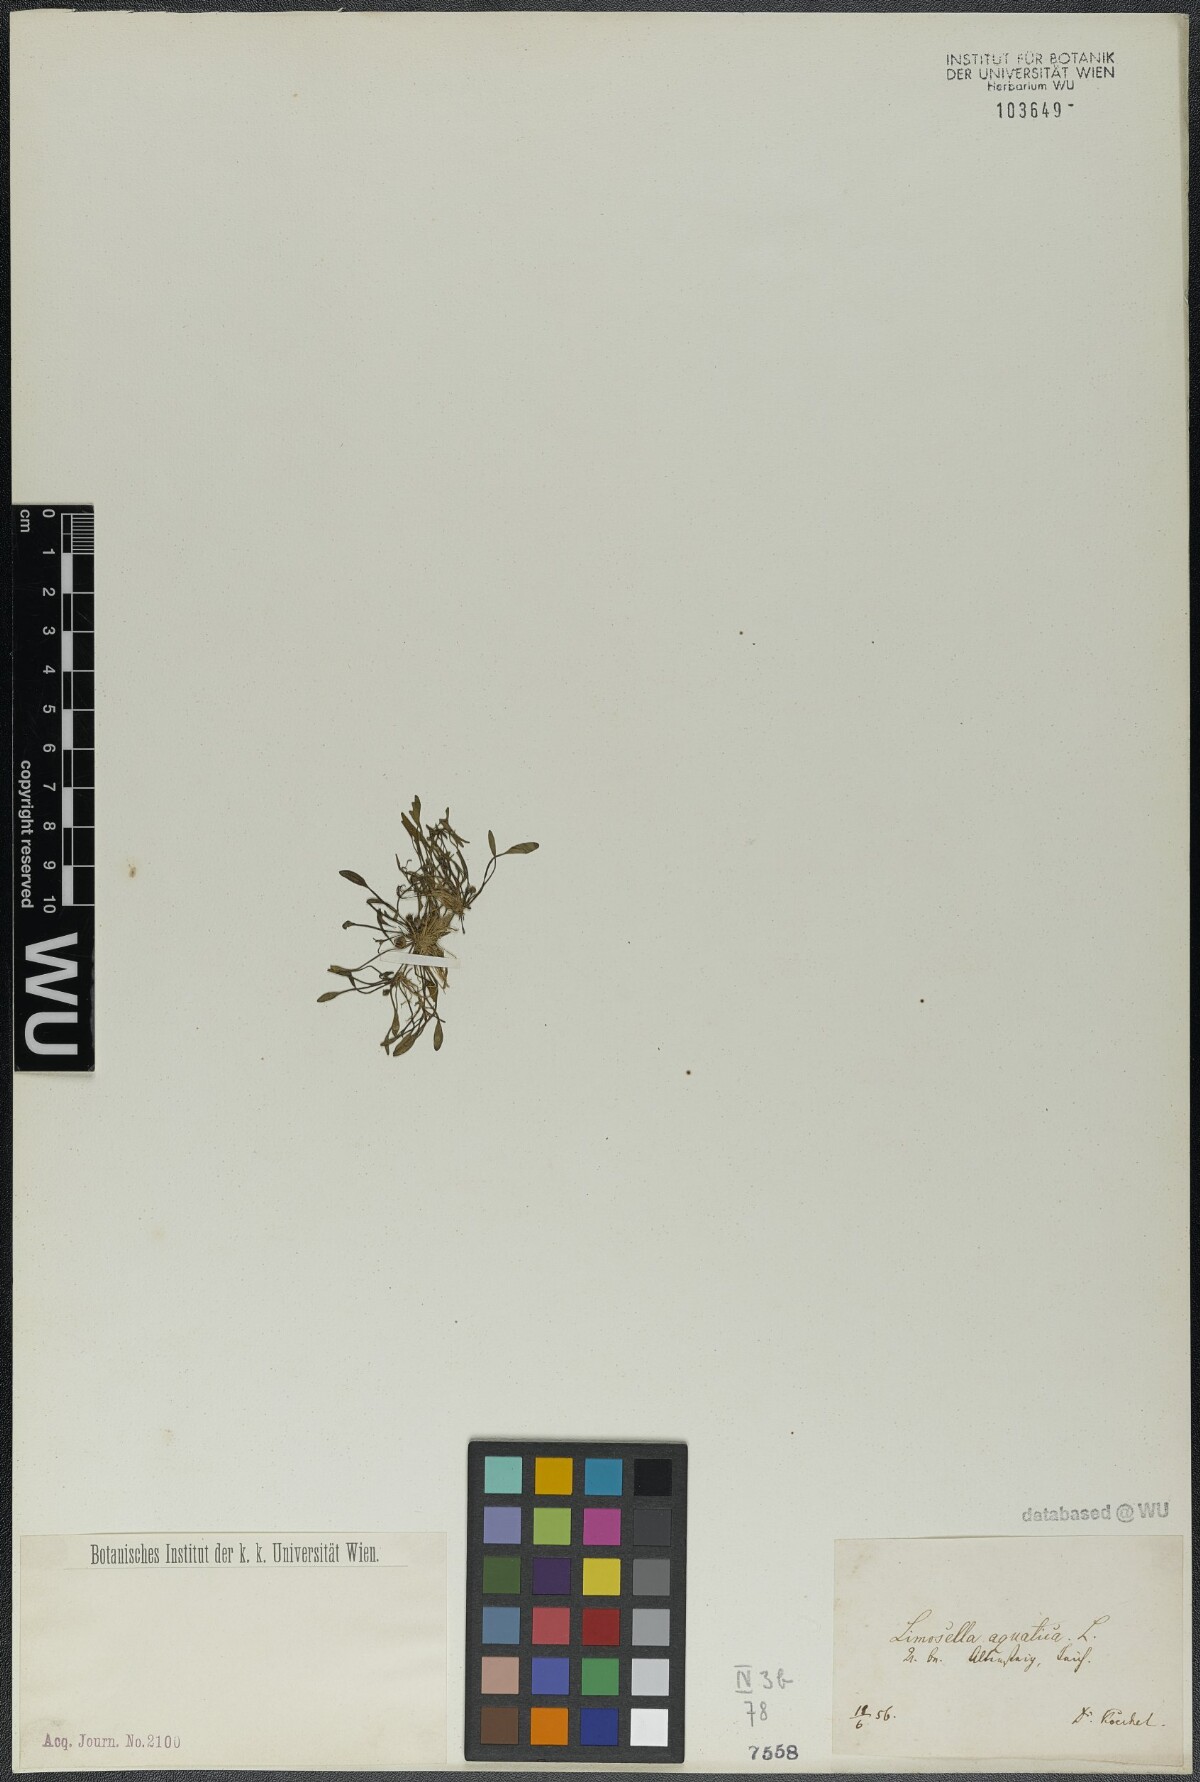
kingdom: Plantae
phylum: Tracheophyta
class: Magnoliopsida
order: Lamiales
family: Scrophulariaceae
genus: Limosella
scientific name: Limosella aquatica
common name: Mudwort
